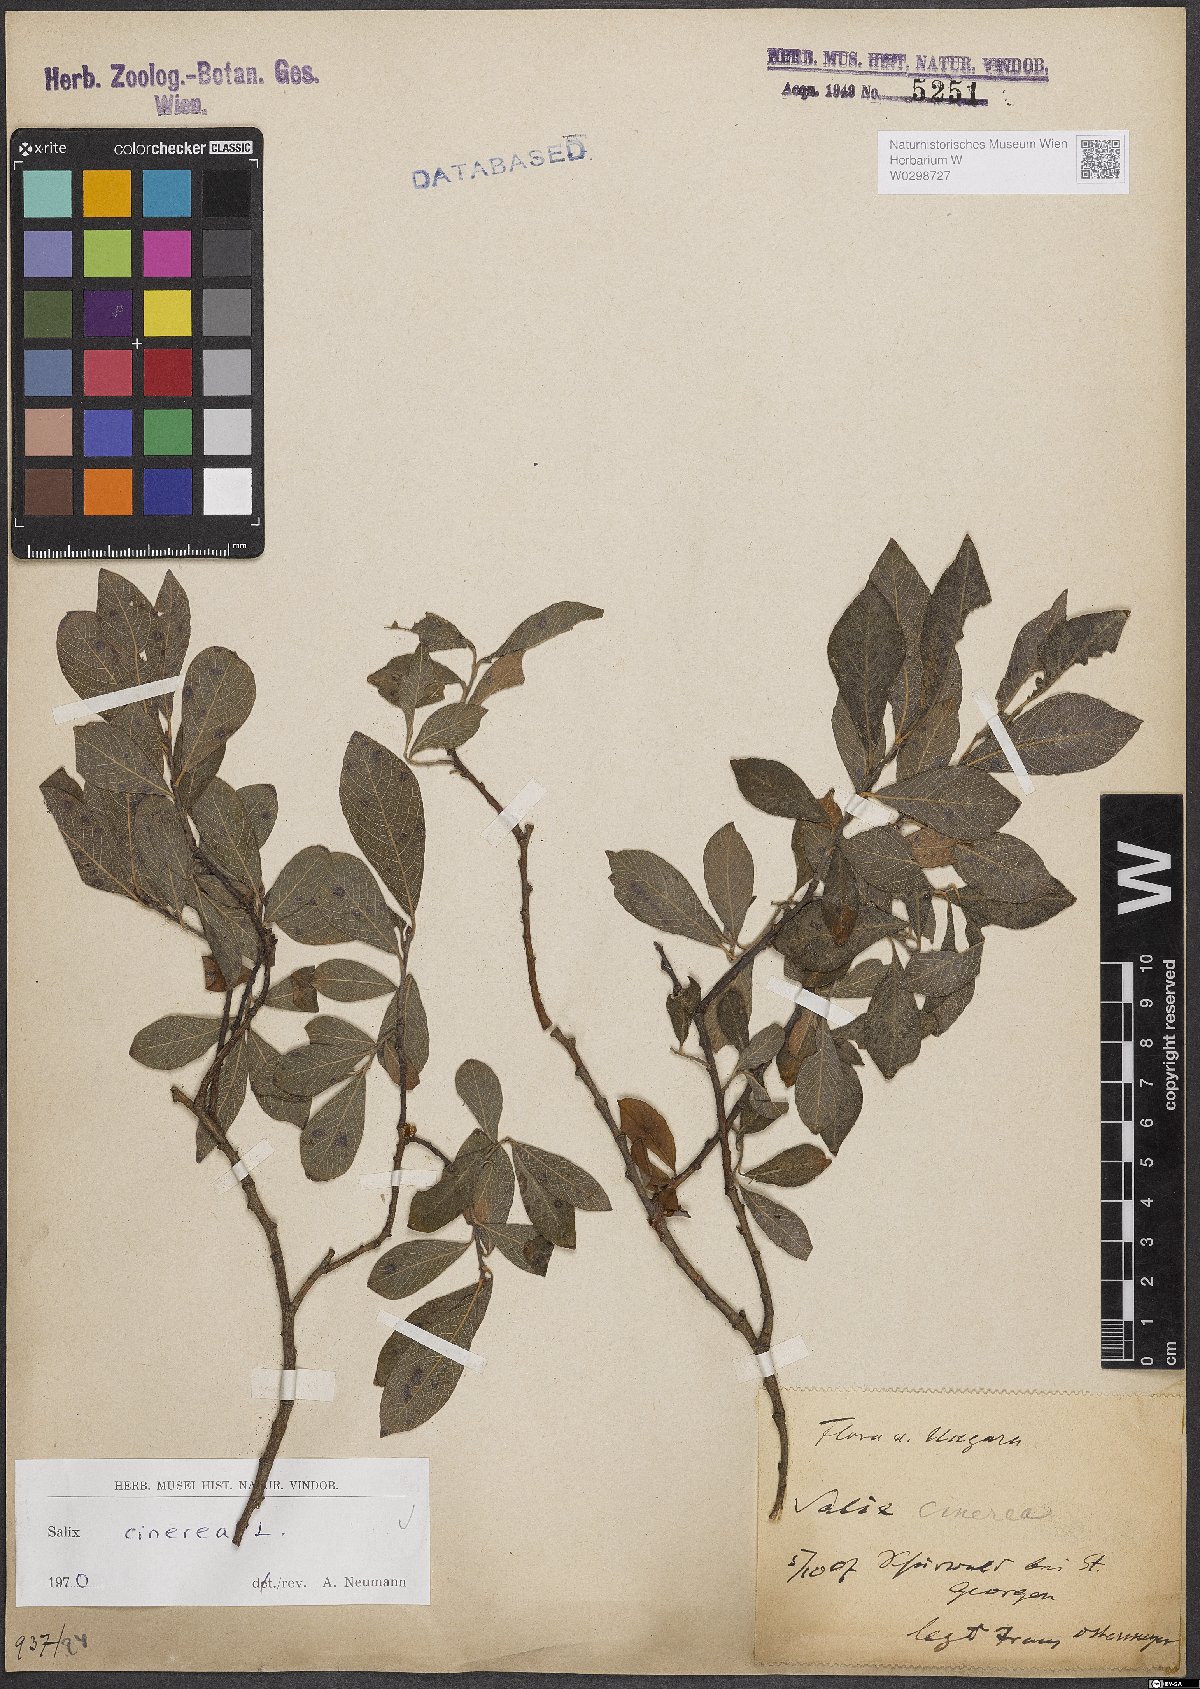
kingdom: Plantae
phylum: Tracheophyta
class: Magnoliopsida
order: Malpighiales
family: Salicaceae
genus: Salix
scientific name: Salix cinerea
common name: Common sallow
